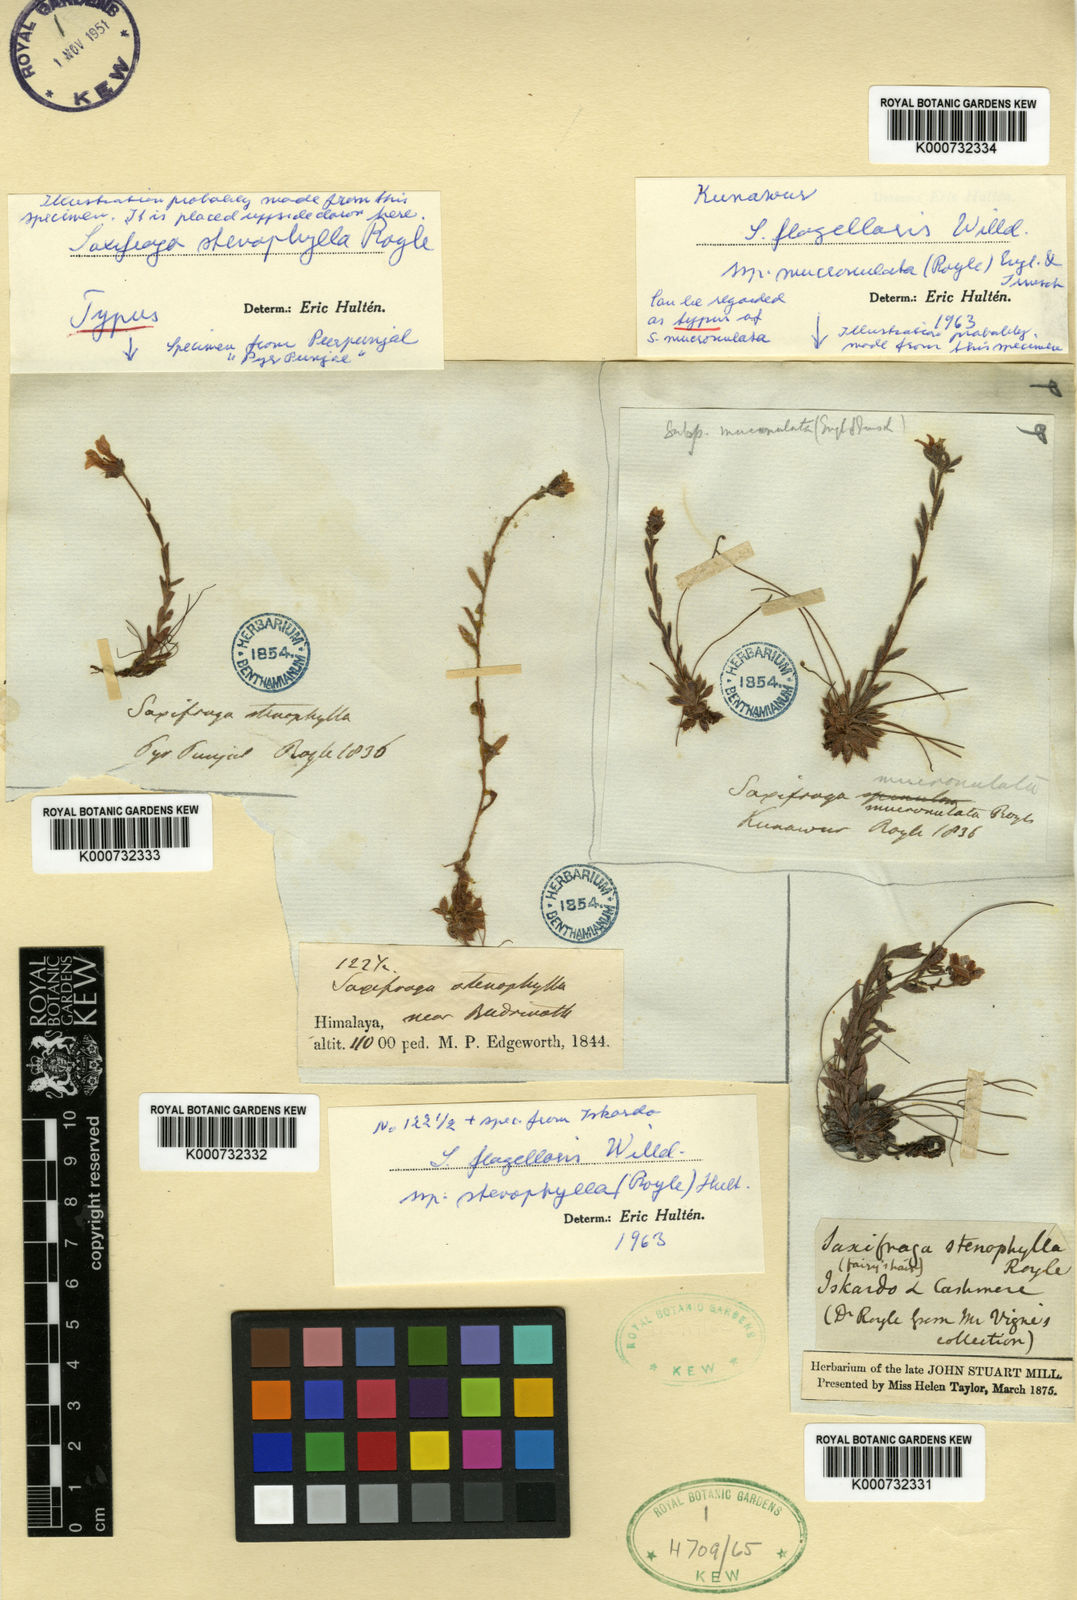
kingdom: Plantae
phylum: Tracheophyta
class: Magnoliopsida
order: Saxifragales
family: Saxifragaceae
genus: Saxifraga
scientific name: Saxifraga flagellaris
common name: Spider saxifrage
